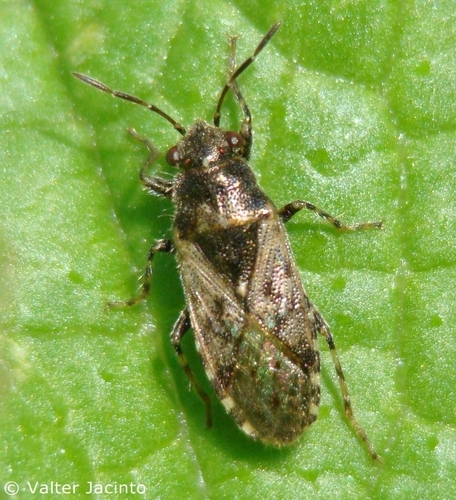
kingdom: Animalia
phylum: Arthropoda
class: Insecta
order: Hemiptera
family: Heterogastridae
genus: Heterogaster
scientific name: Heterogaster urticae
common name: Seed bug
